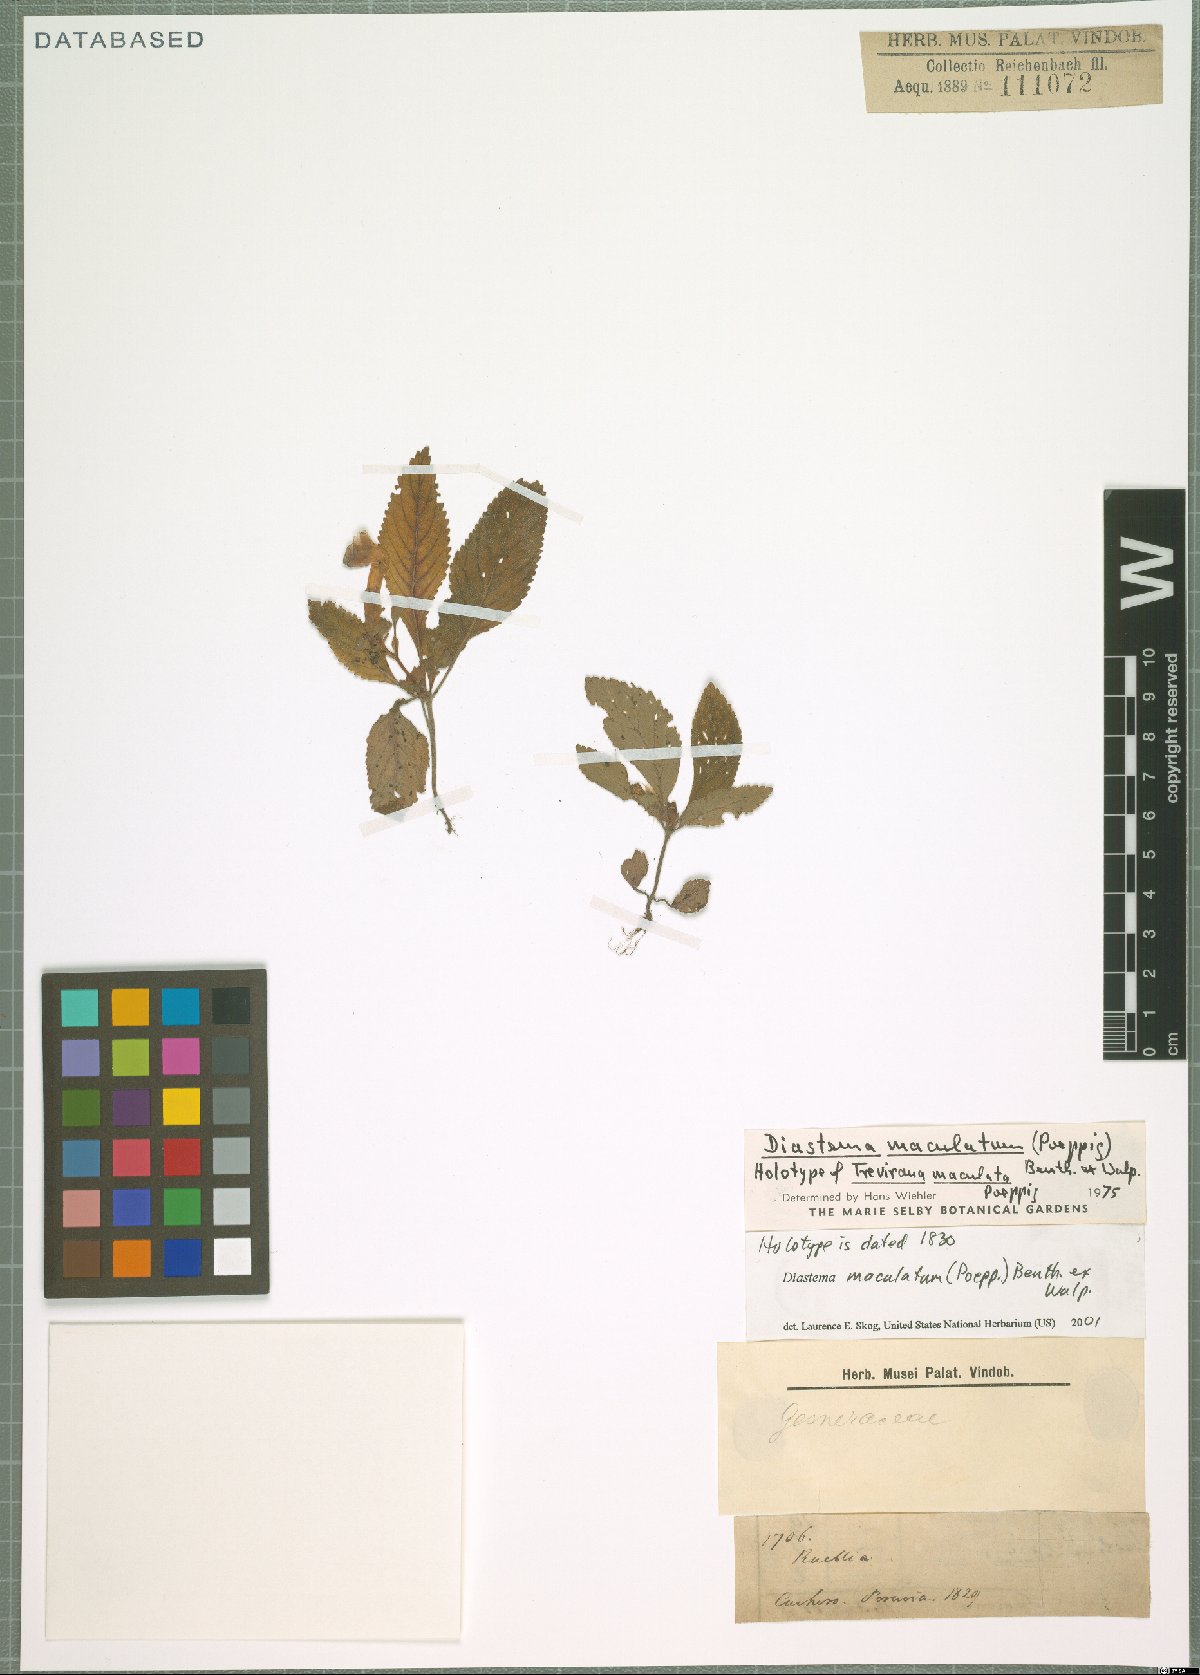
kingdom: Plantae
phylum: Tracheophyta
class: Magnoliopsida
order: Lamiales
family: Gesneriaceae
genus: Diastema
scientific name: Diastema maculatum
